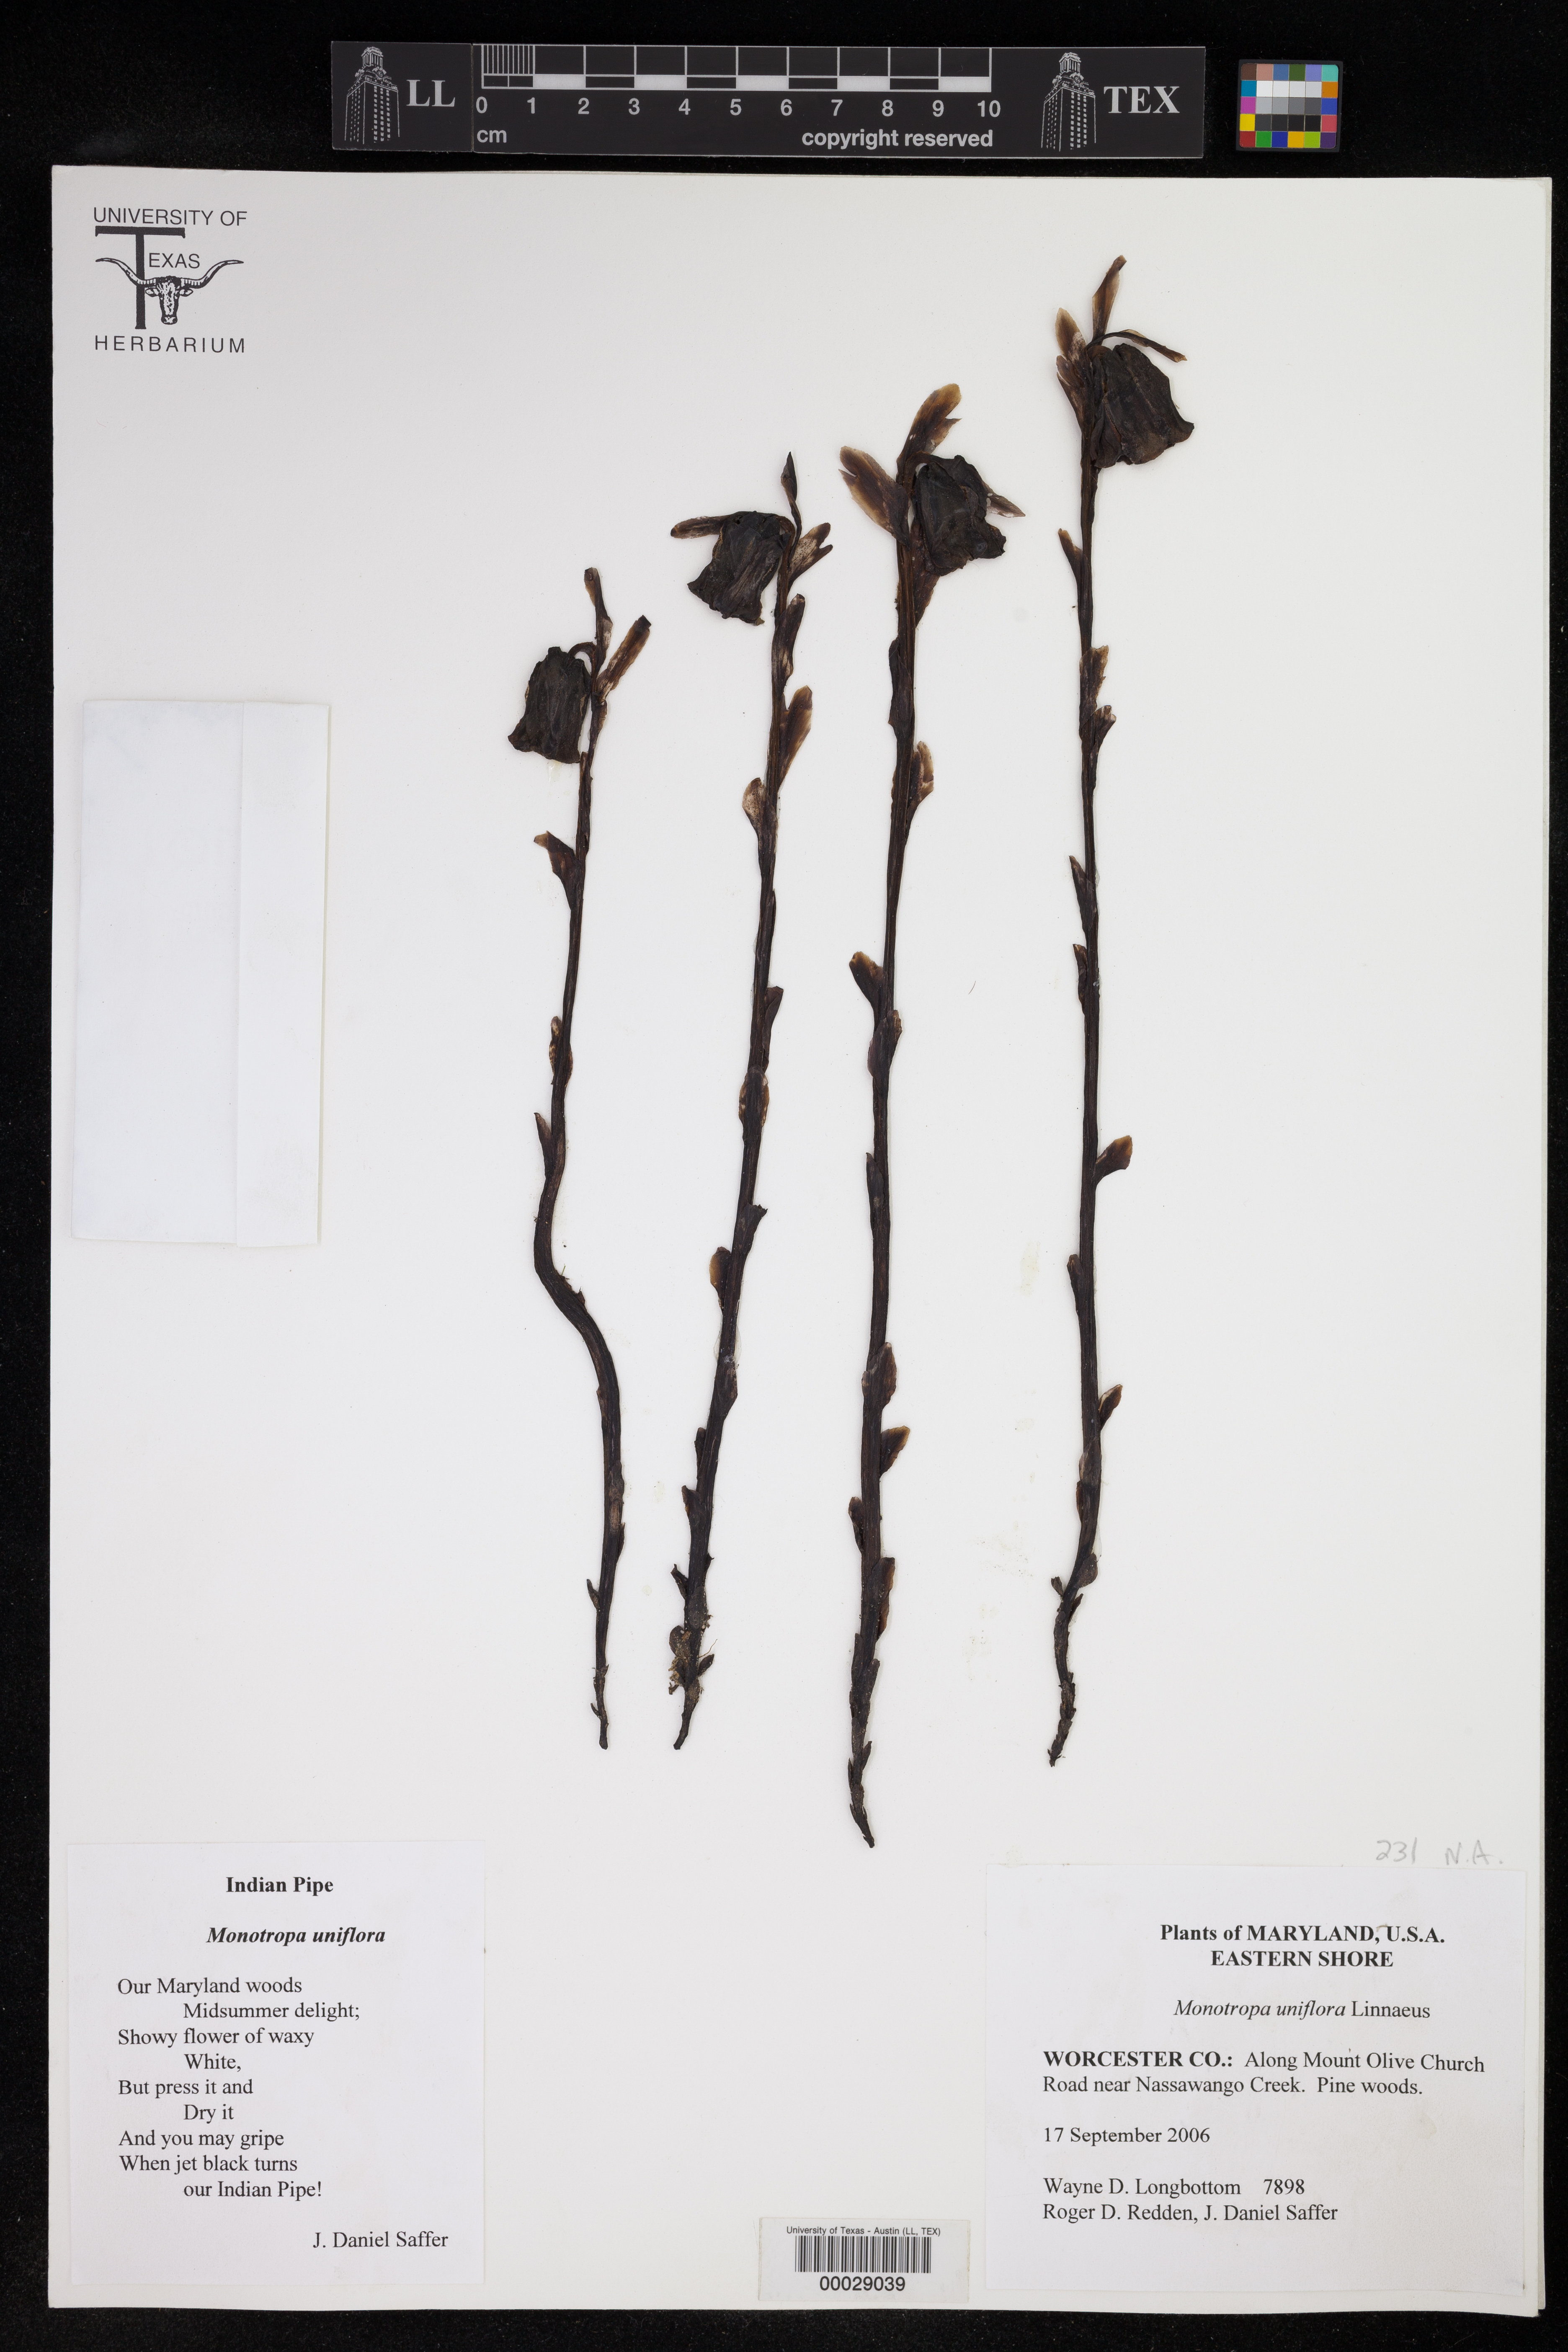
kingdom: Plantae
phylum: Tracheophyta
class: Magnoliopsida
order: Ericales
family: Ericaceae
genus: Monotropa
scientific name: Monotropa uniflora
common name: Convulsion root
